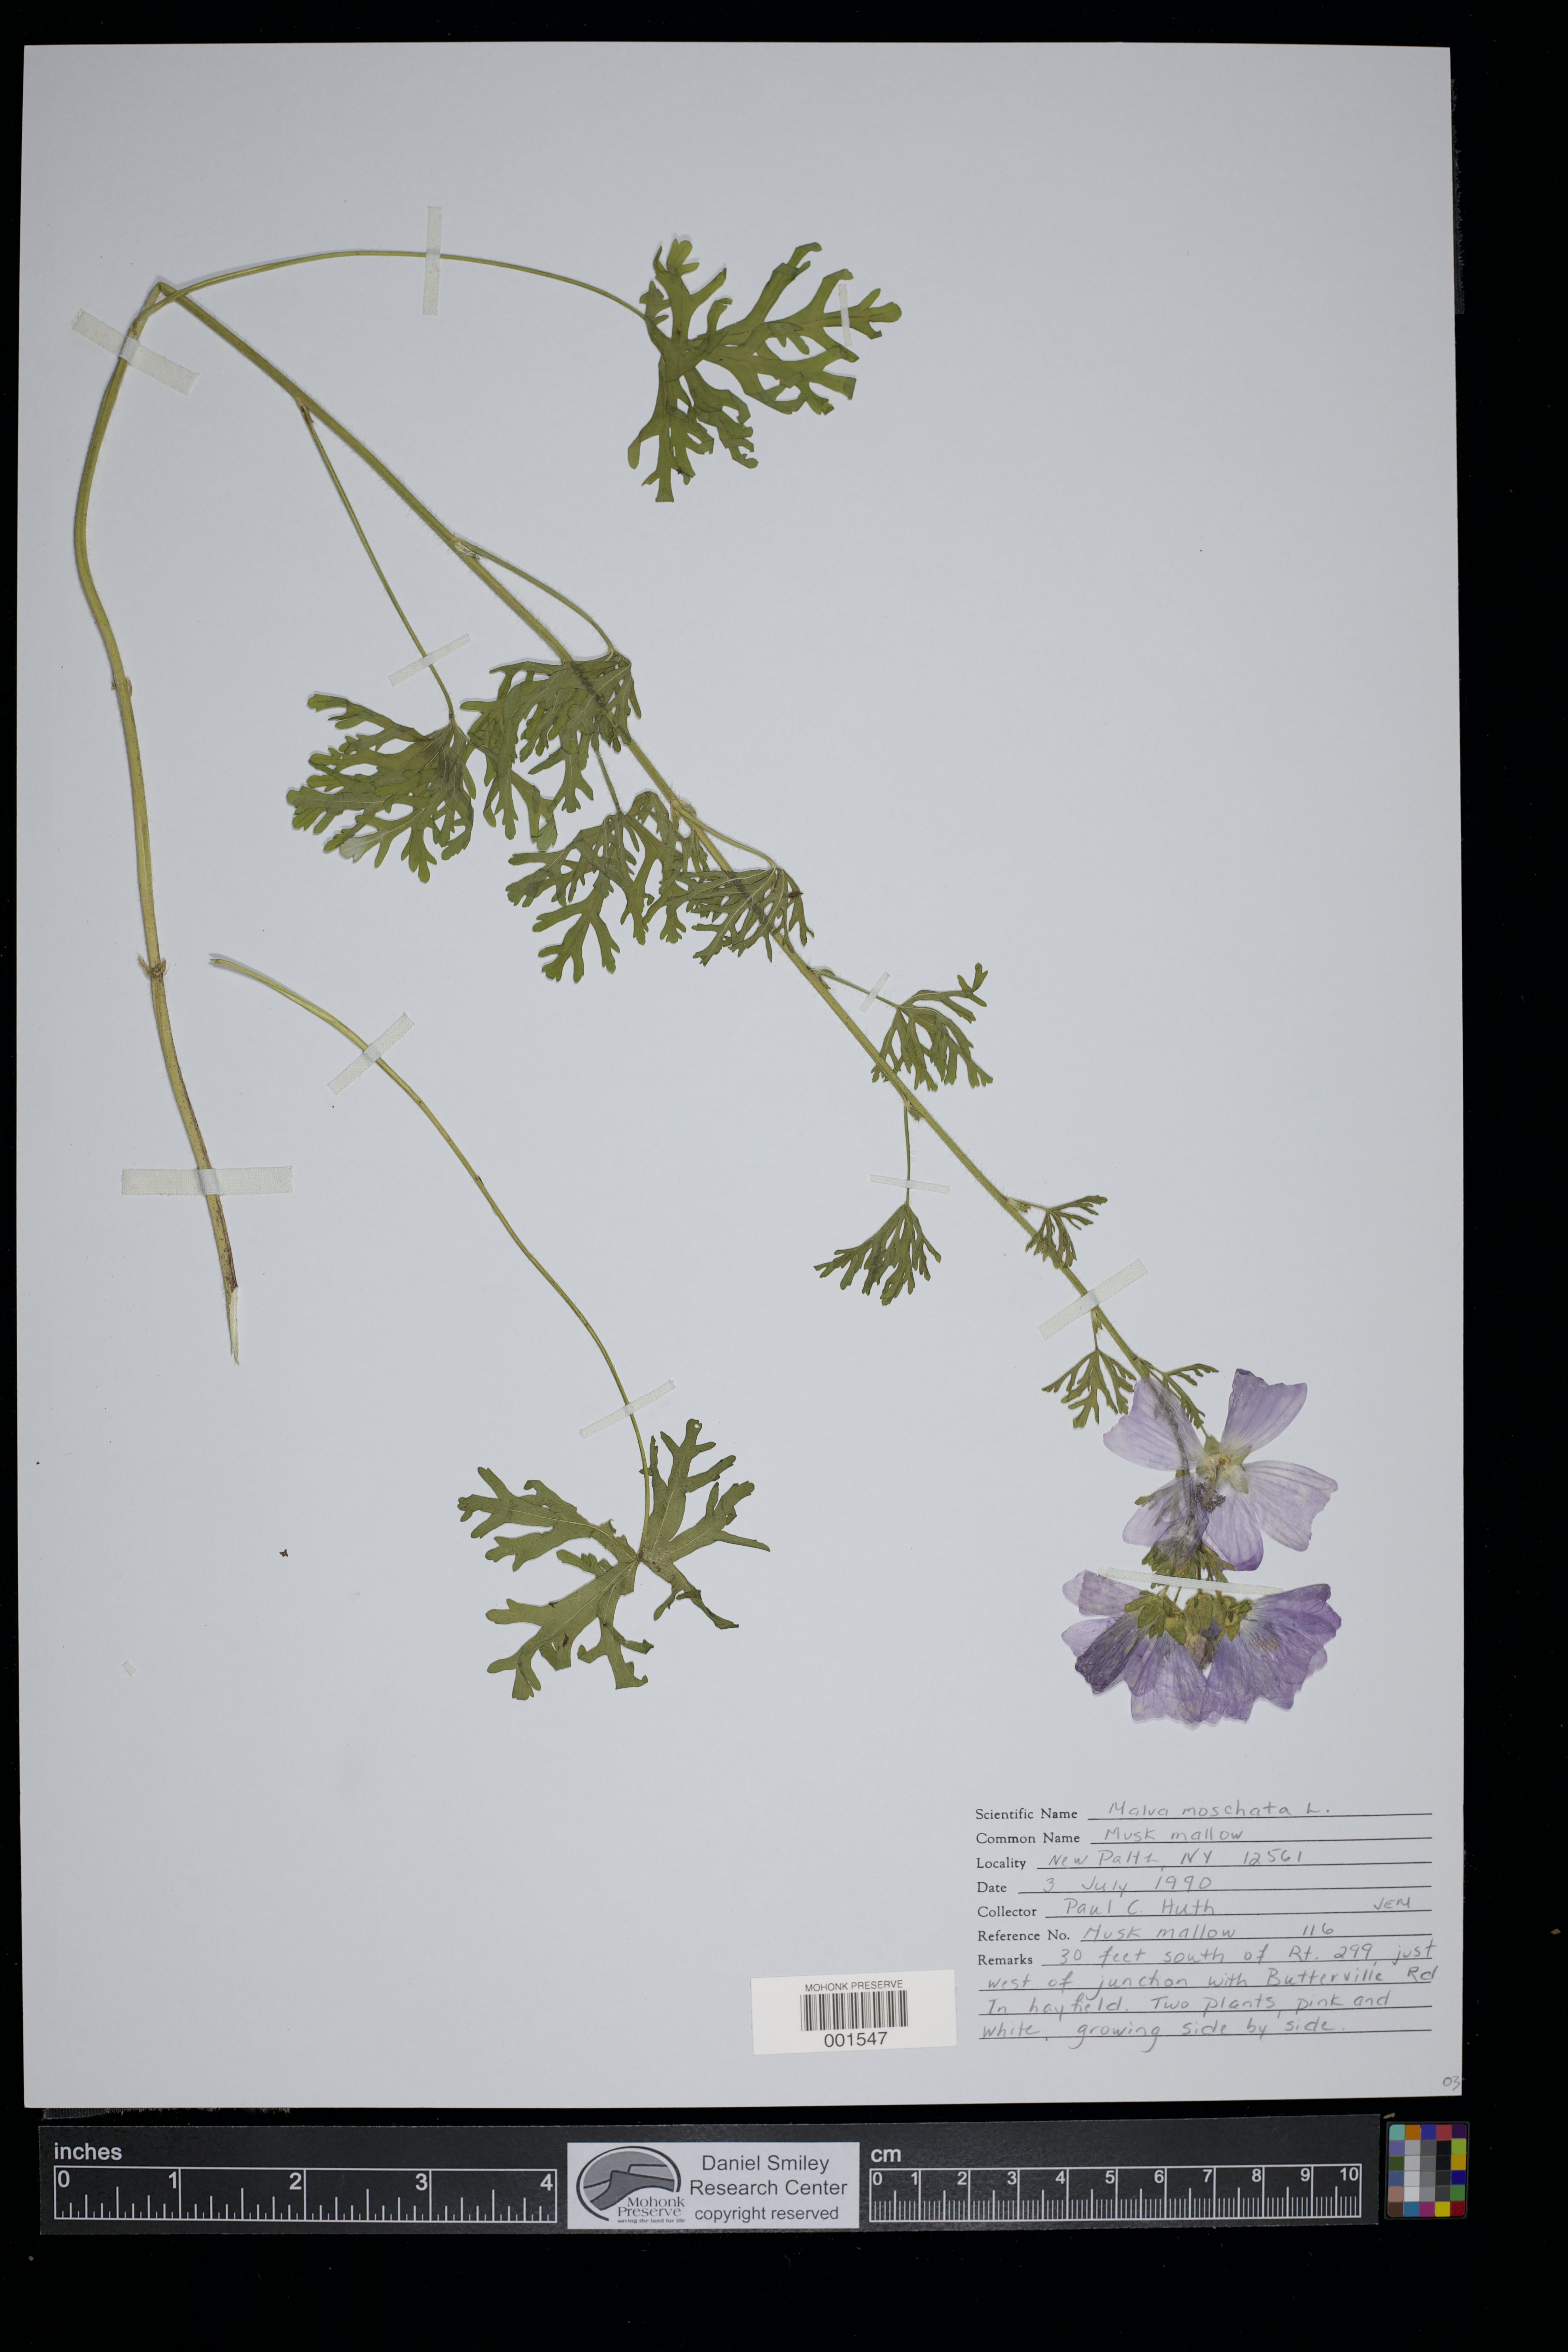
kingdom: Plantae
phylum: Tracheophyta
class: Magnoliopsida
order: Malvales
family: Malvaceae
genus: Malva
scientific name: Malva moschata
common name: Musk mallow
